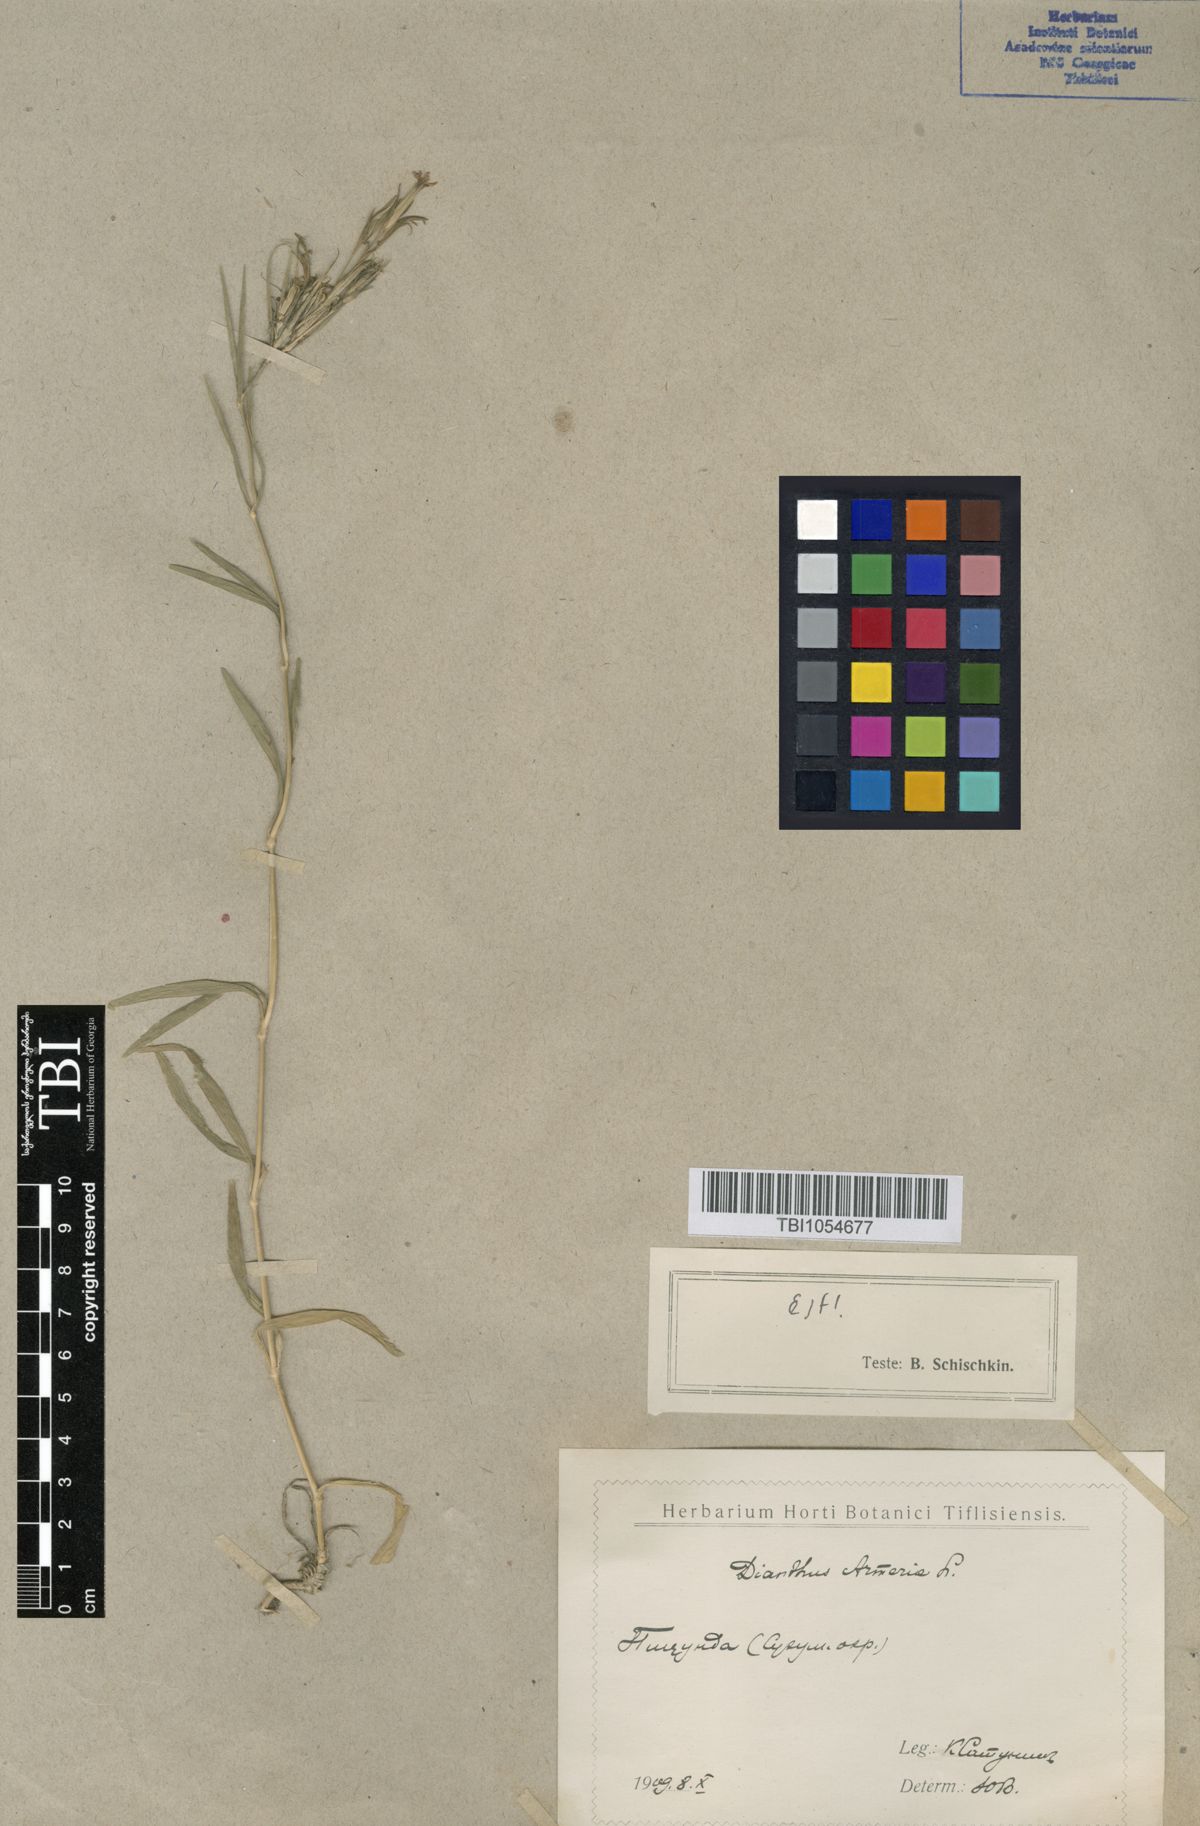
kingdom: Plantae
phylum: Tracheophyta
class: Magnoliopsida
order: Caryophyllales
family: Caryophyllaceae
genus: Dianthus
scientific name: Dianthus armeria
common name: Deptford pink
